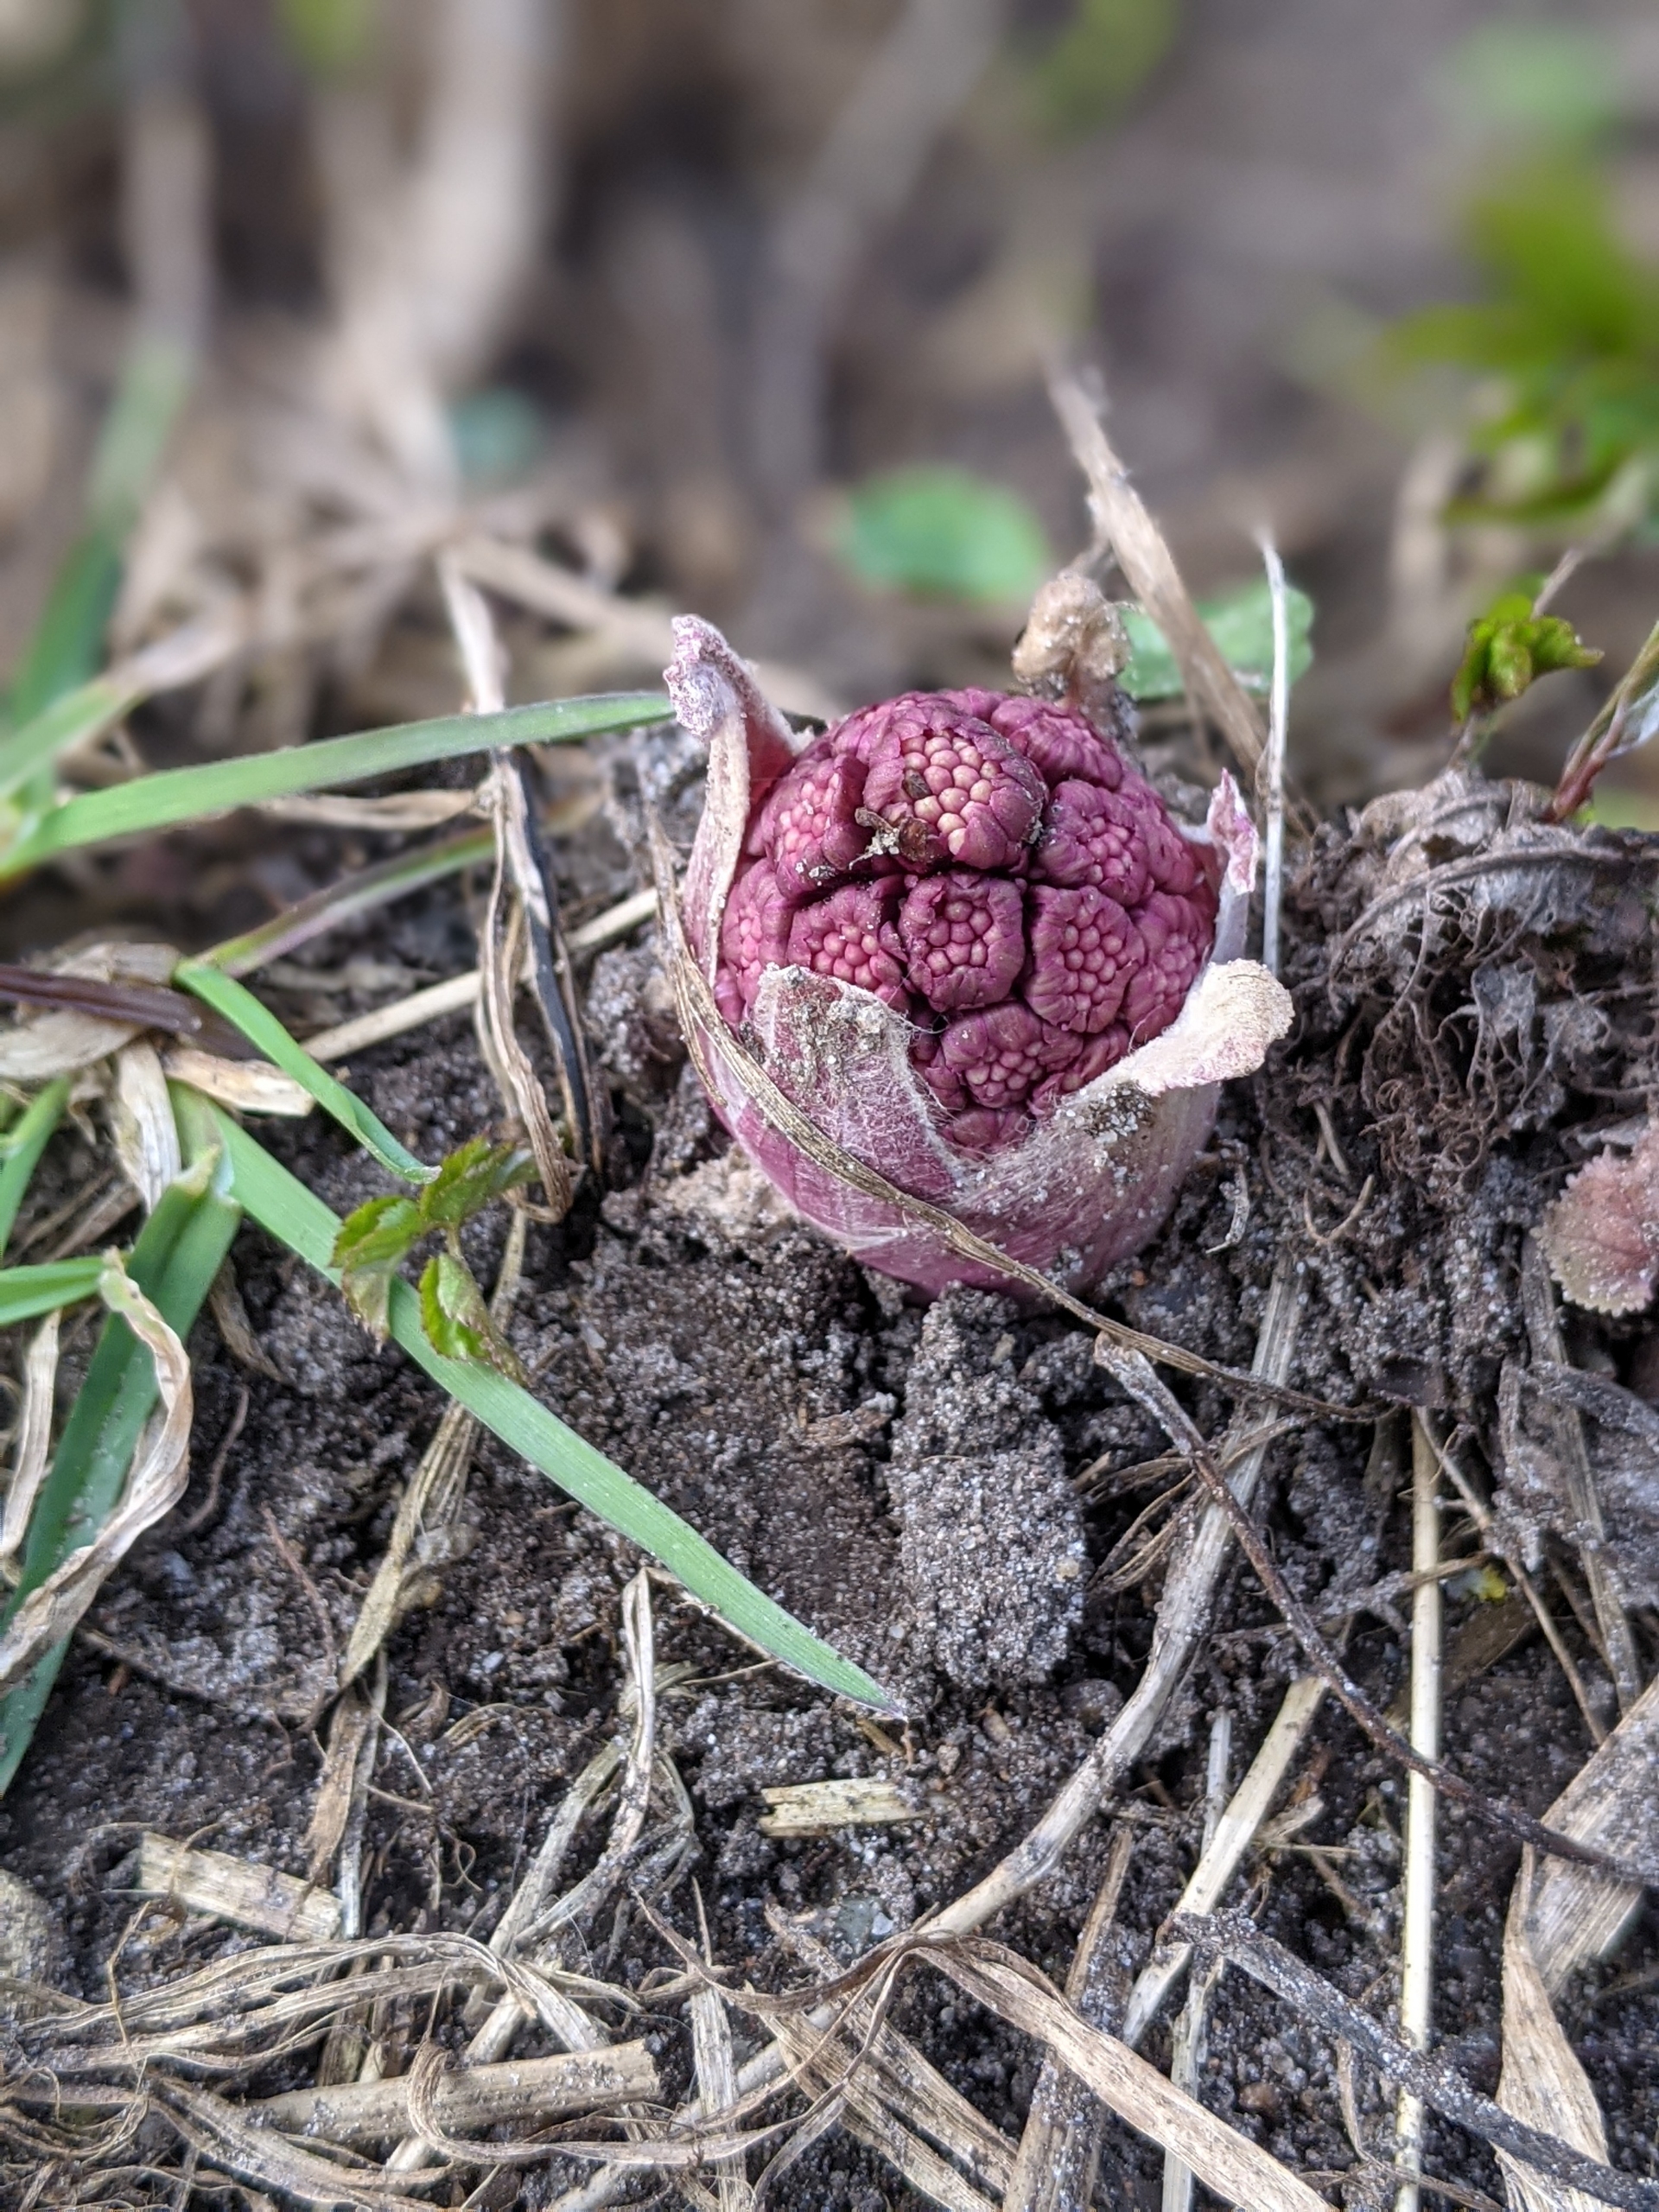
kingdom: Plantae
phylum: Tracheophyta
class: Magnoliopsida
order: Asterales
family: Asteraceae
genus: Petasites
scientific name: Petasites hybridus
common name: Rød hestehov
